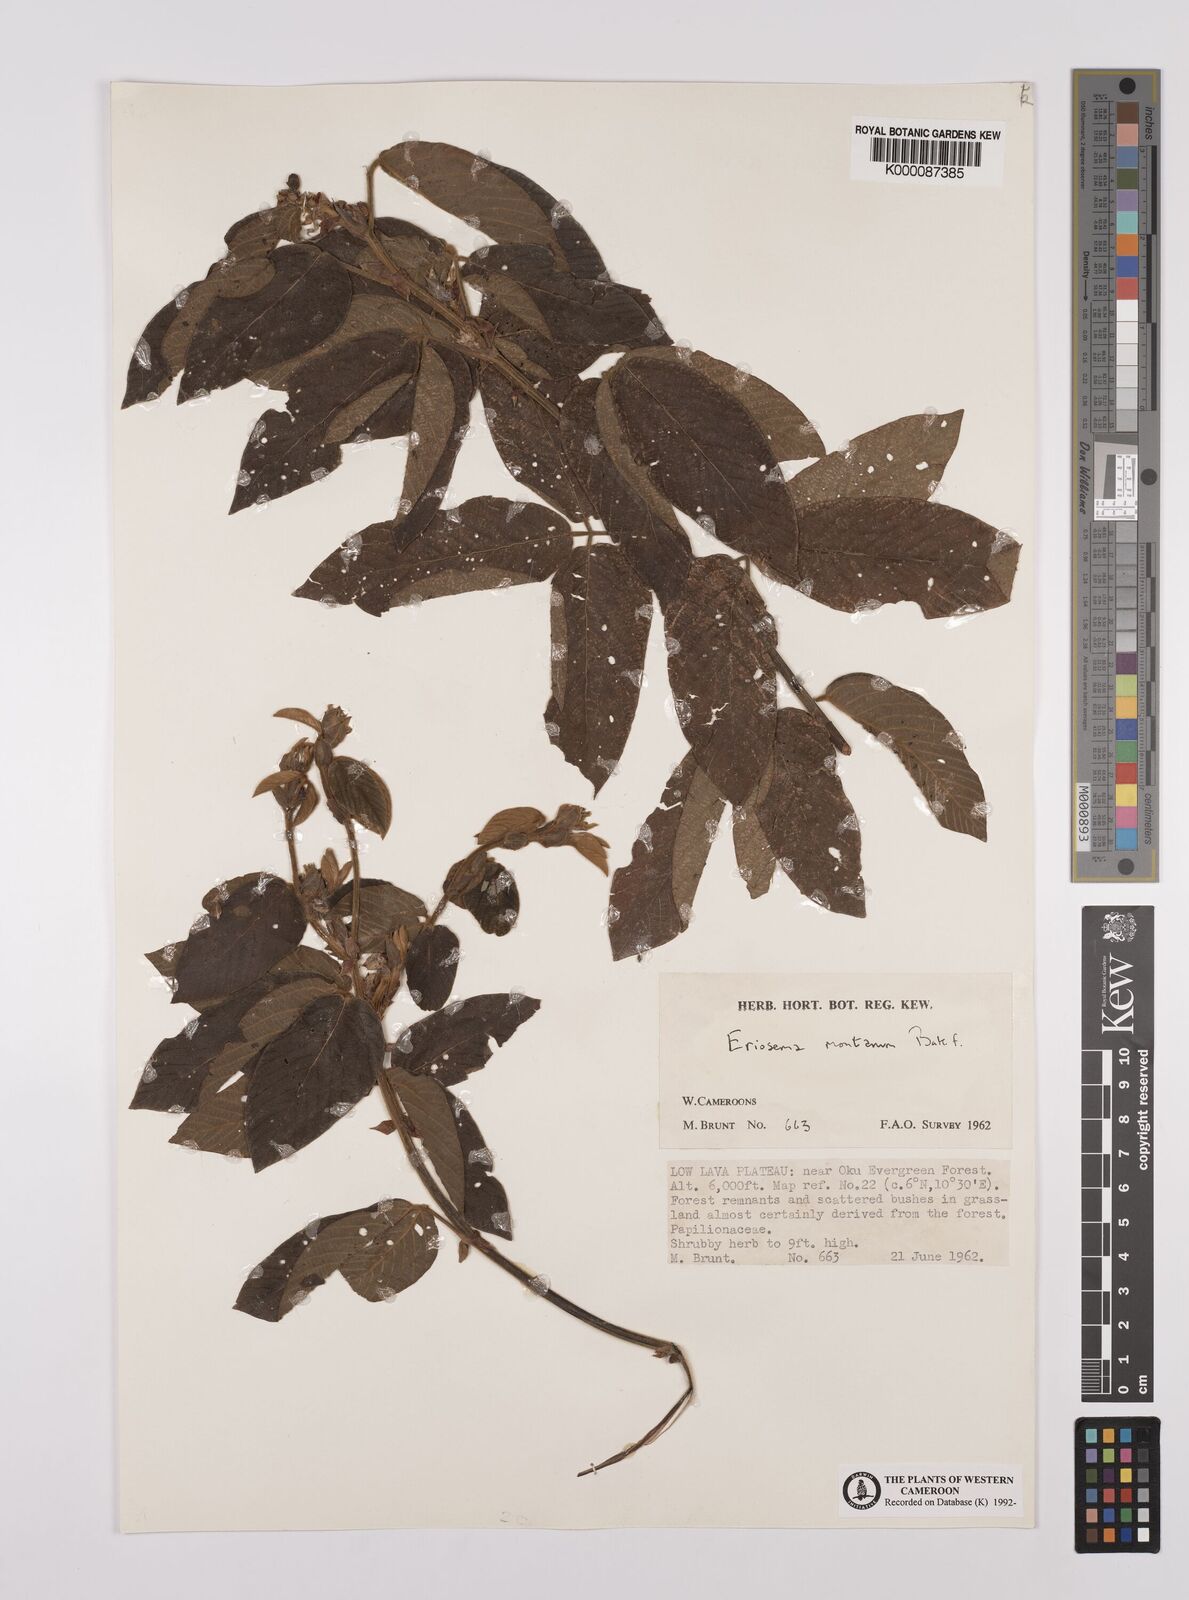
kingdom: Plantae
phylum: Tracheophyta
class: Magnoliopsida
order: Fabales
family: Fabaceae
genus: Eriosema
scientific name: Eriosema montanum
